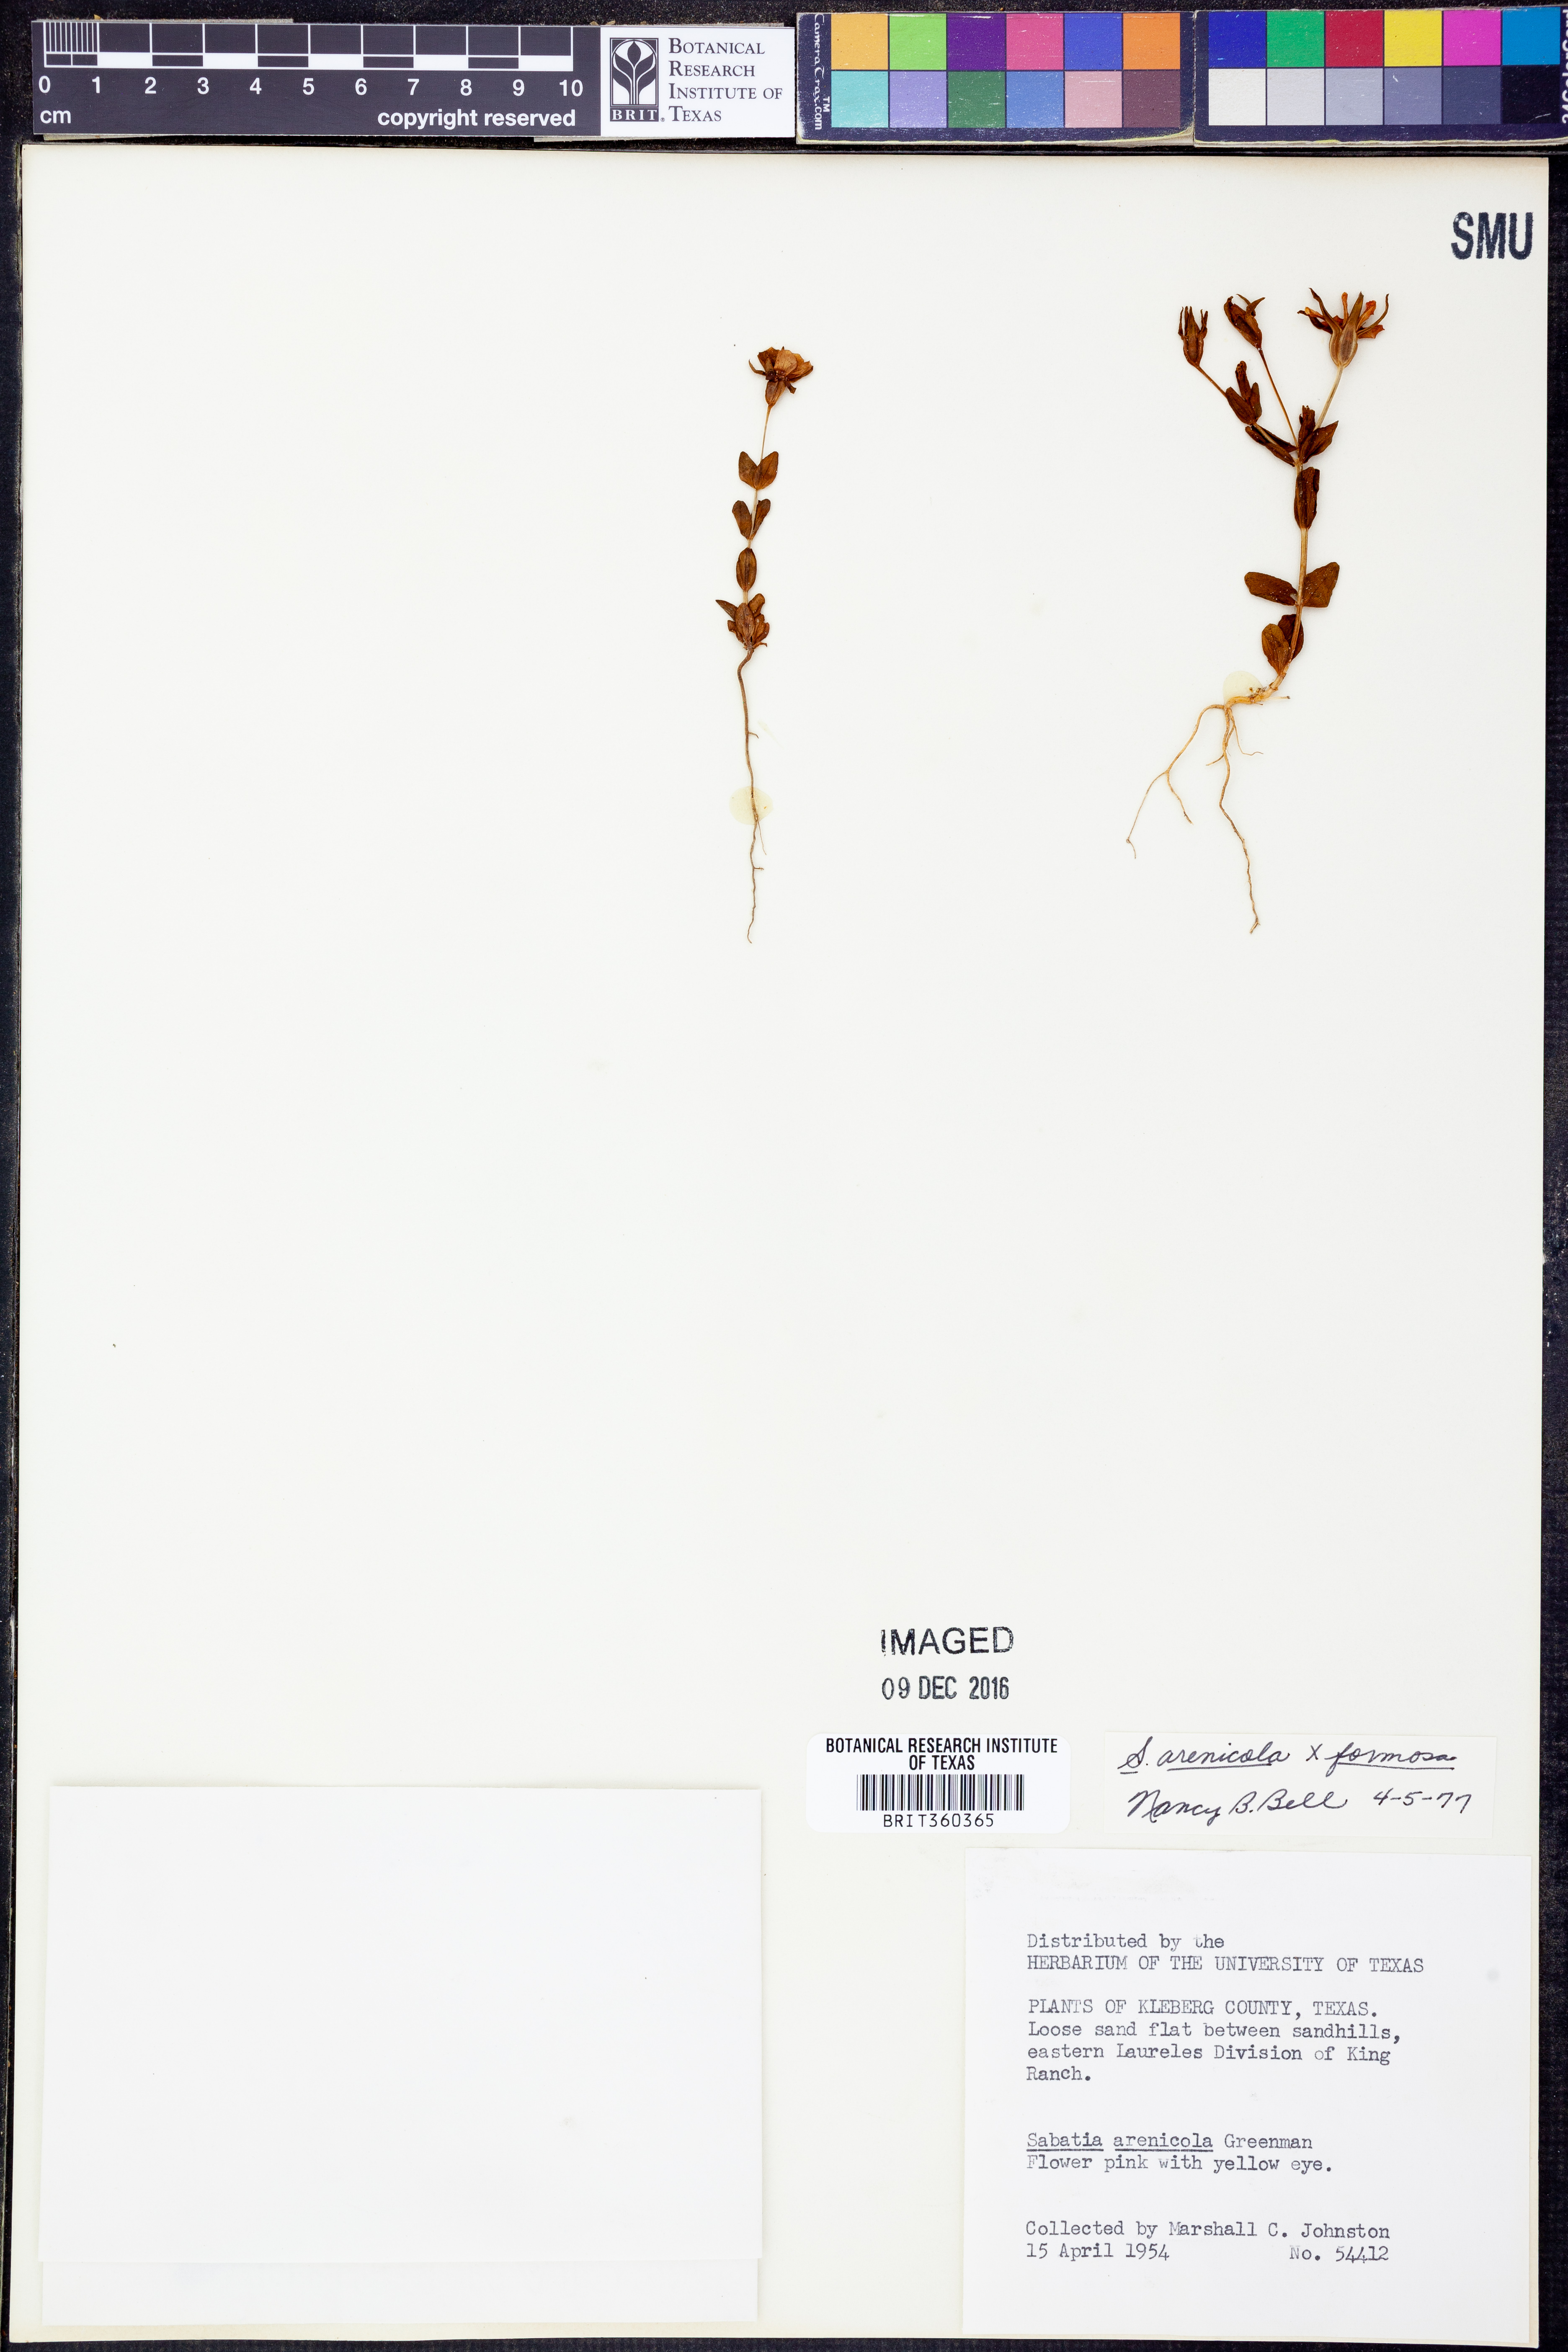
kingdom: Plantae
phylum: Tracheophyta
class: Magnoliopsida
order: Gentianales
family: Gentianaceae
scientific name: Gentianaceae
